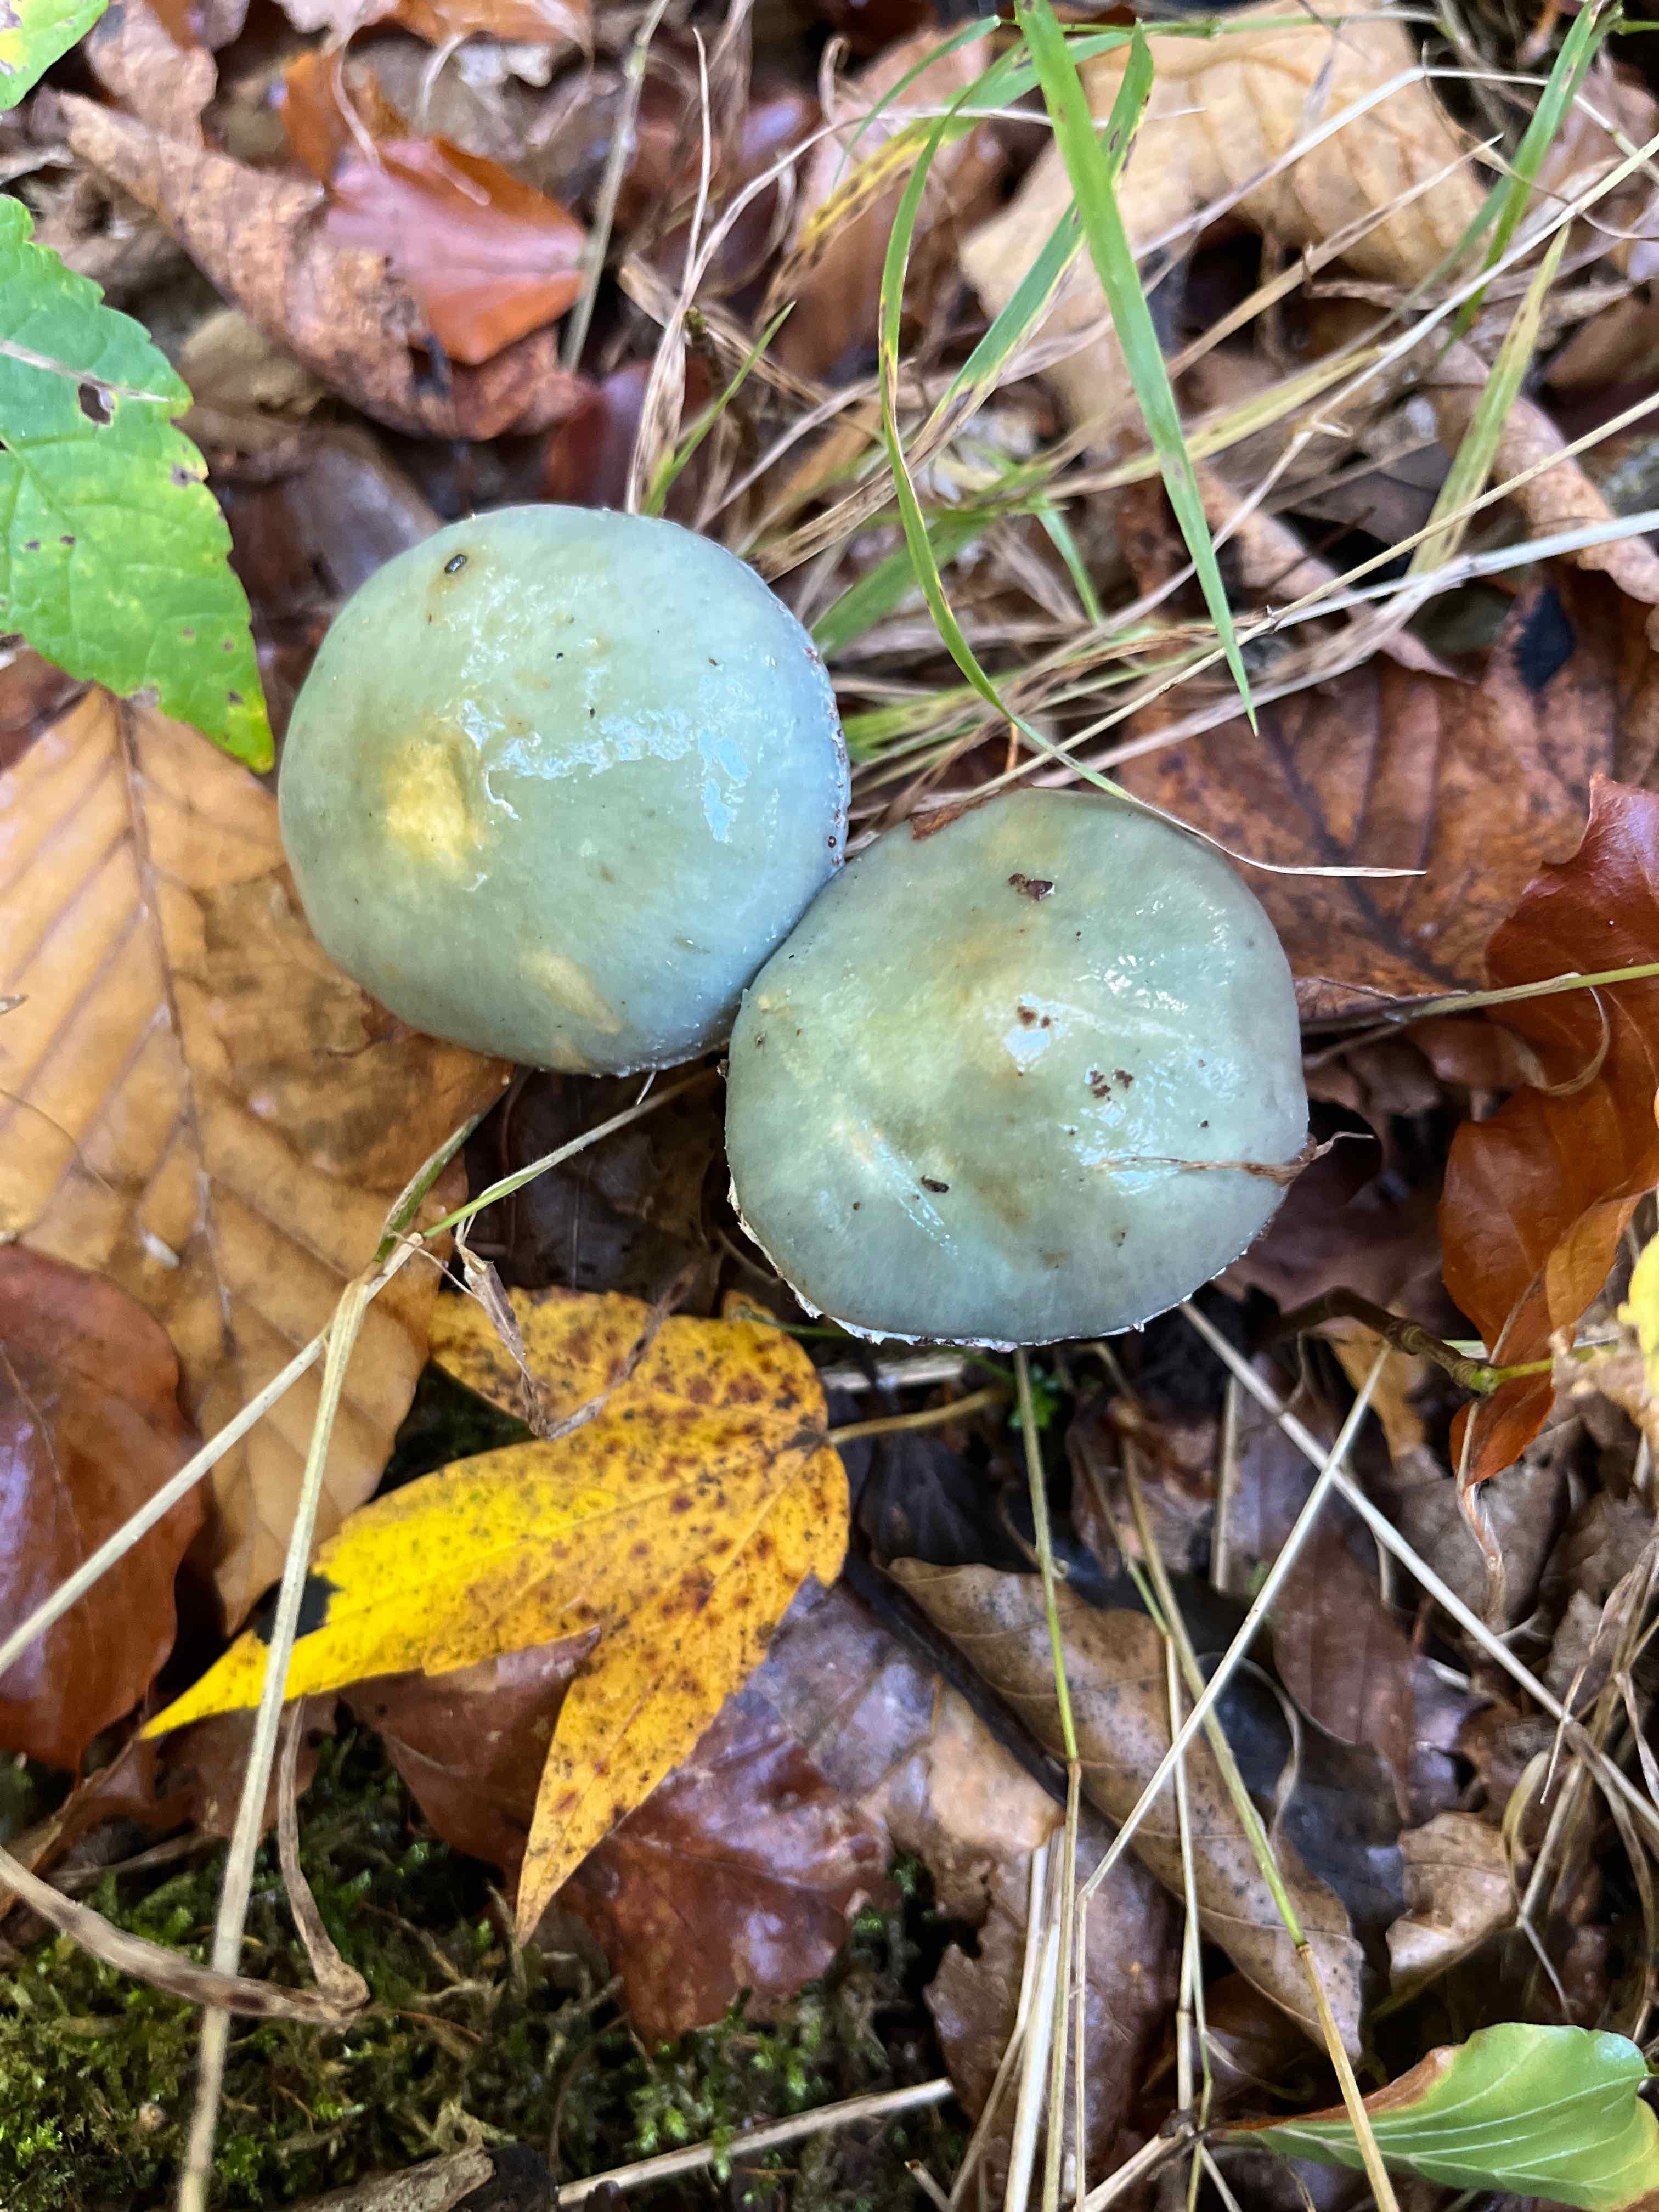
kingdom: Fungi
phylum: Basidiomycota
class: Agaricomycetes
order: Agaricales
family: Strophariaceae
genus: Stropharia
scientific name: Stropharia cyanea
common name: blågrøn bredblad
